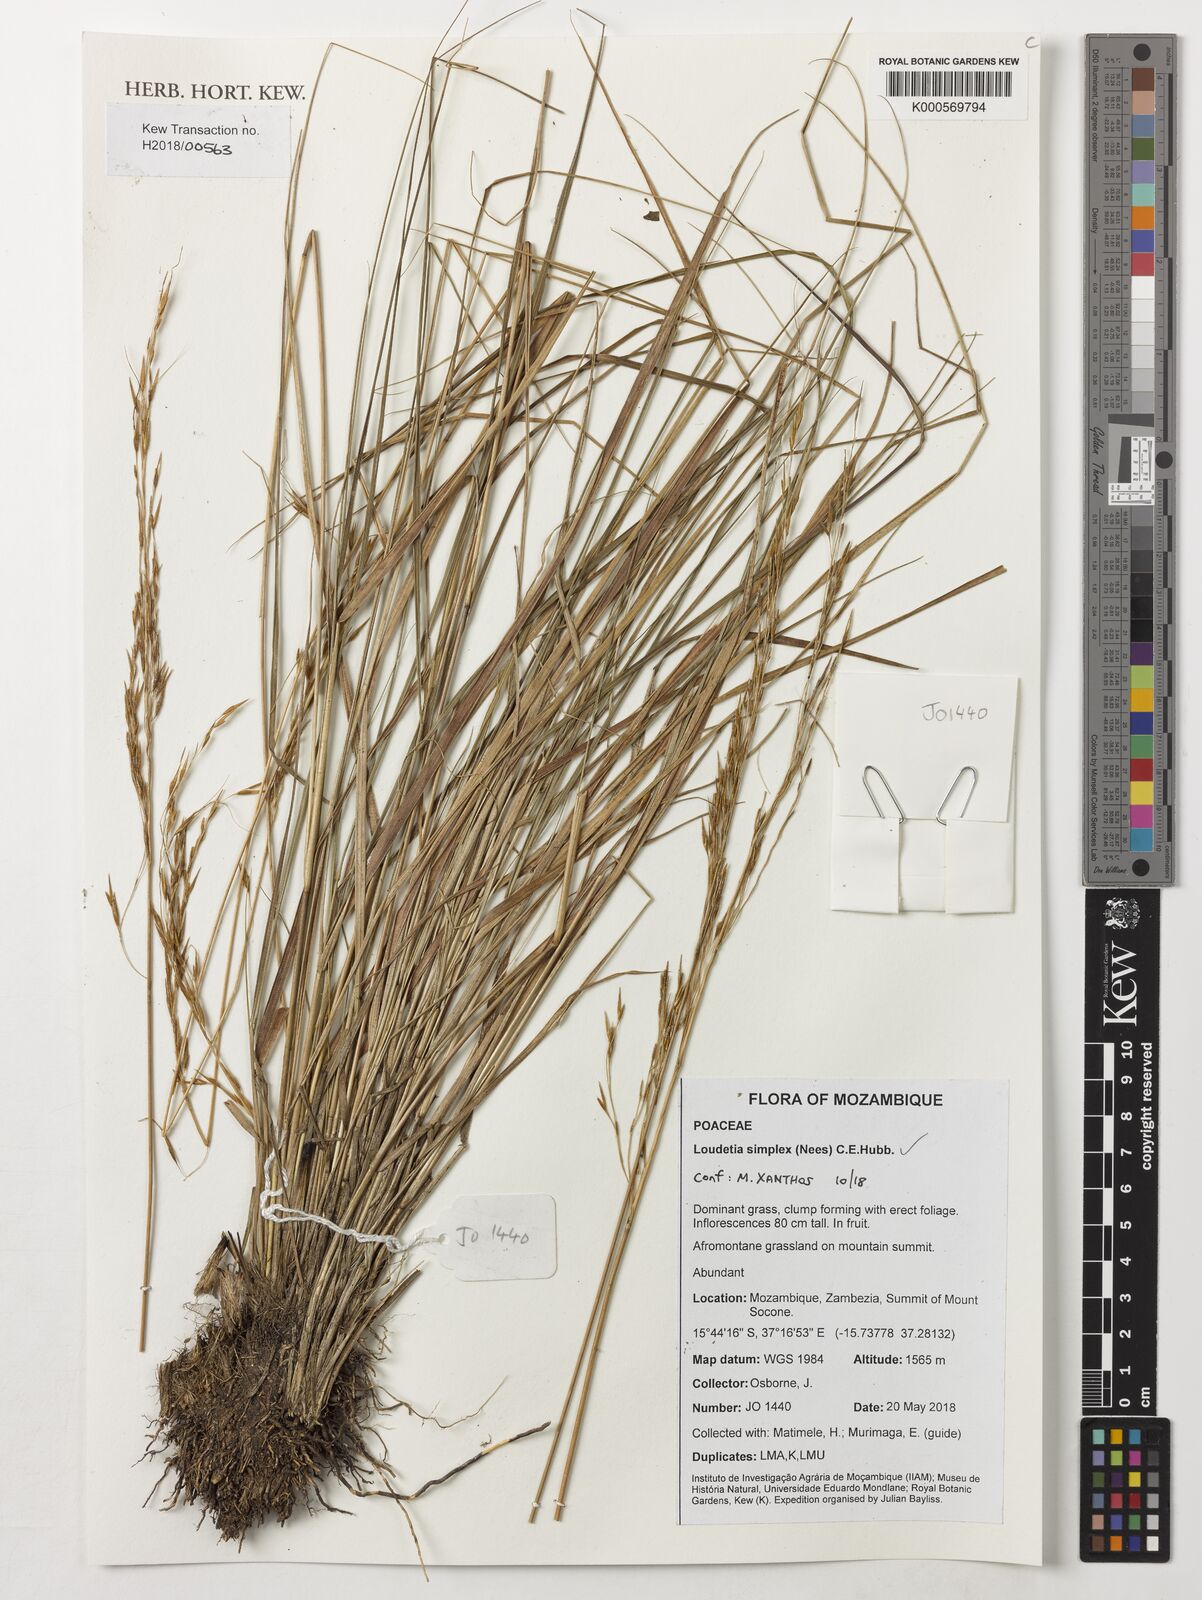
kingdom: Plantae
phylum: Tracheophyta
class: Liliopsida
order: Poales
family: Poaceae
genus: Loudetia
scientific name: Loudetia simplex
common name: Common russet grass
